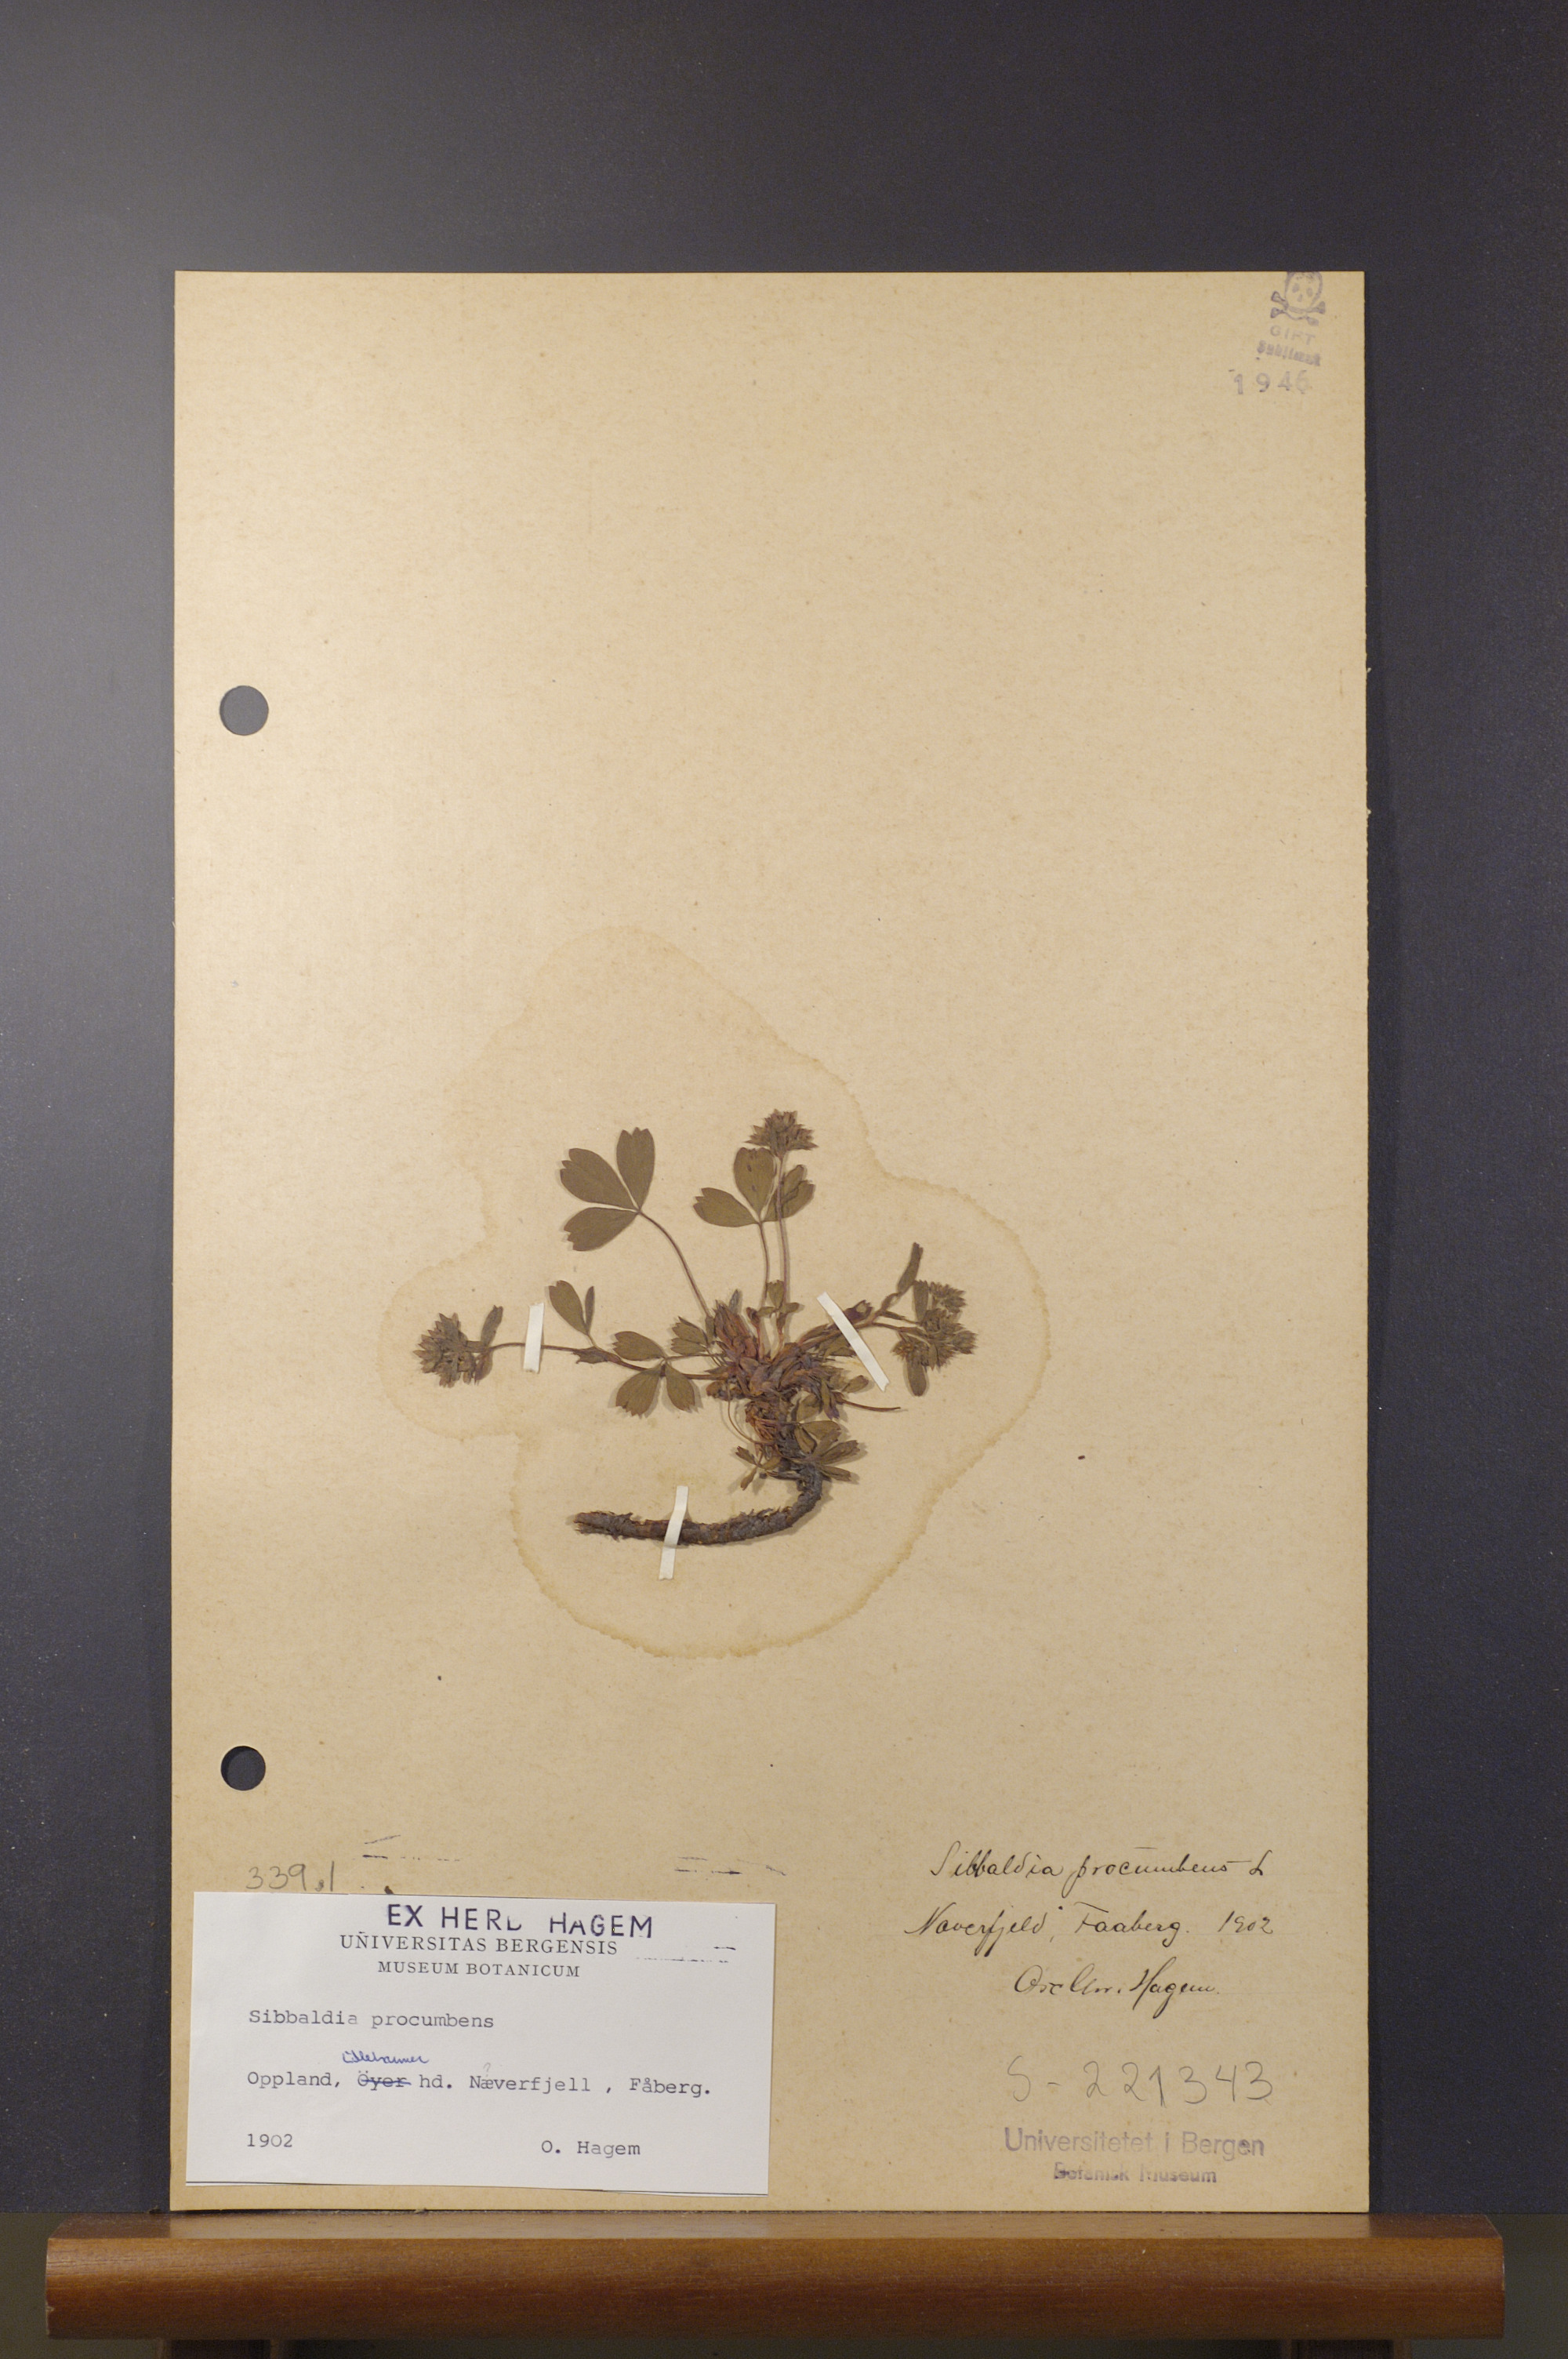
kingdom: Plantae
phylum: Tracheophyta
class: Magnoliopsida
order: Rosales
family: Rosaceae
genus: Sibbaldia
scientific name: Sibbaldia procumbens
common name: Creeping sibbaldia
